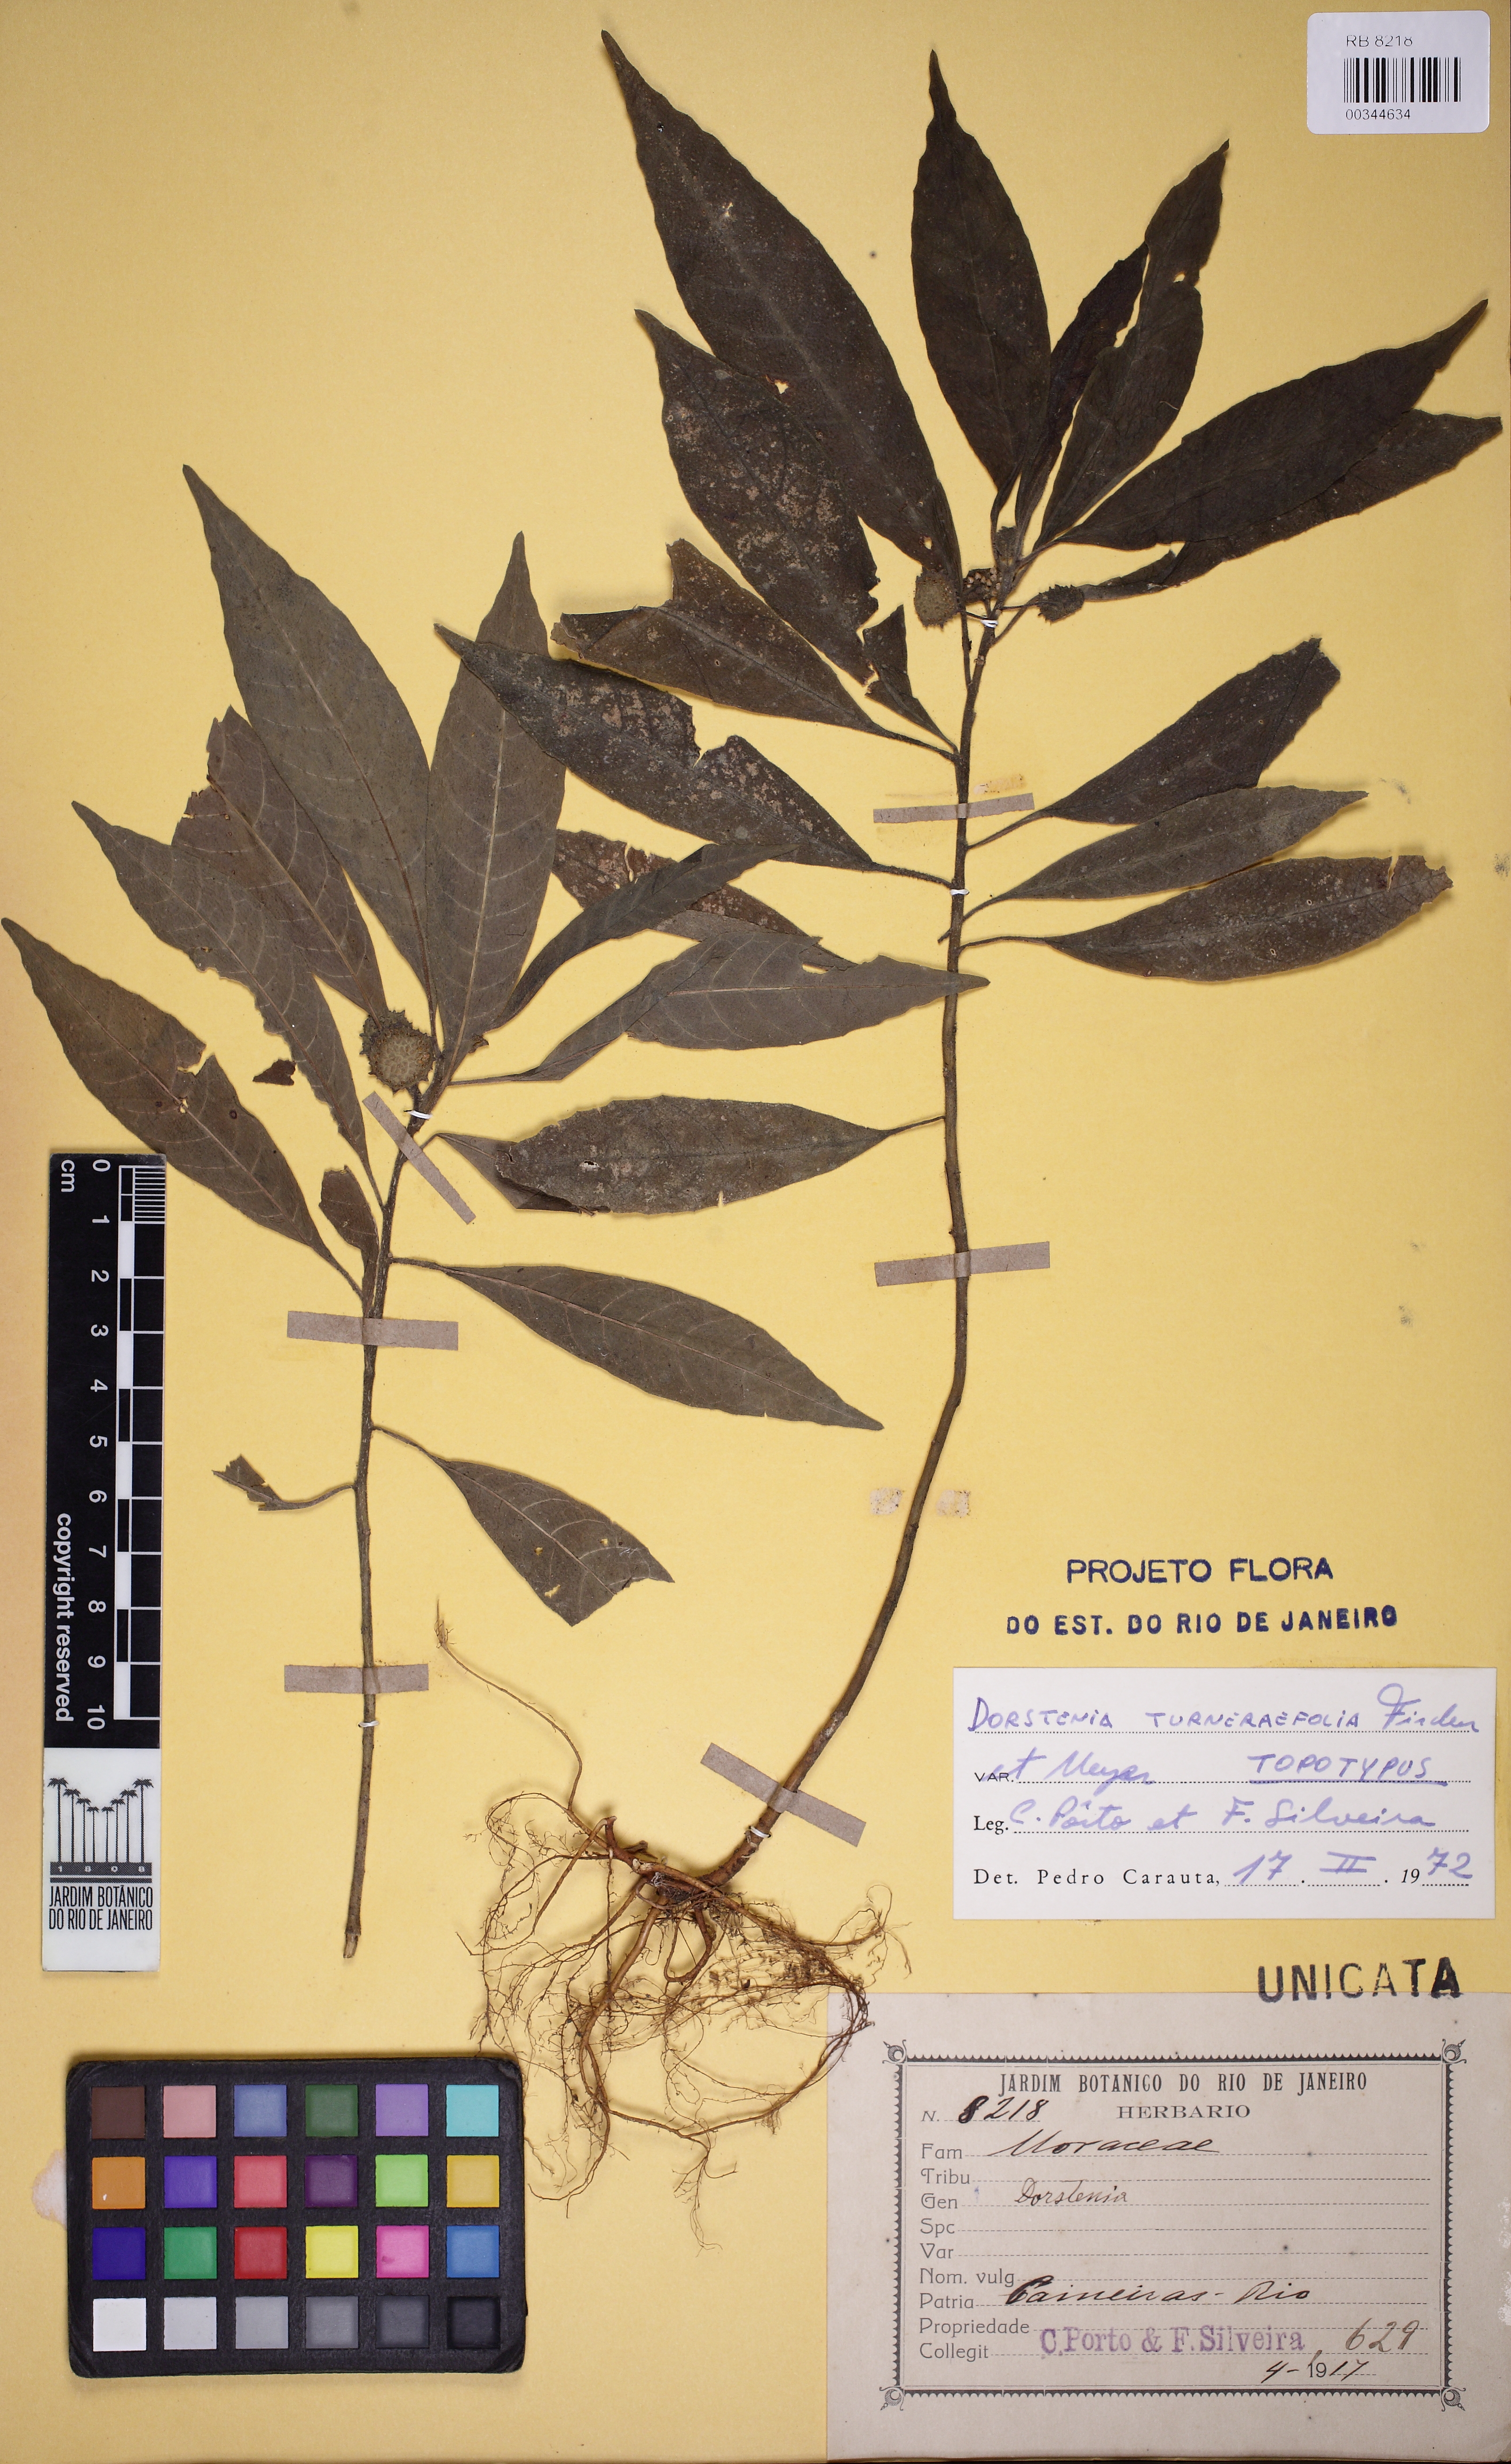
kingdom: Plantae
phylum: Tracheophyta
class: Magnoliopsida
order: Rosales
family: Moraceae
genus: Dorstenia
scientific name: Dorstenia turnerifolia
